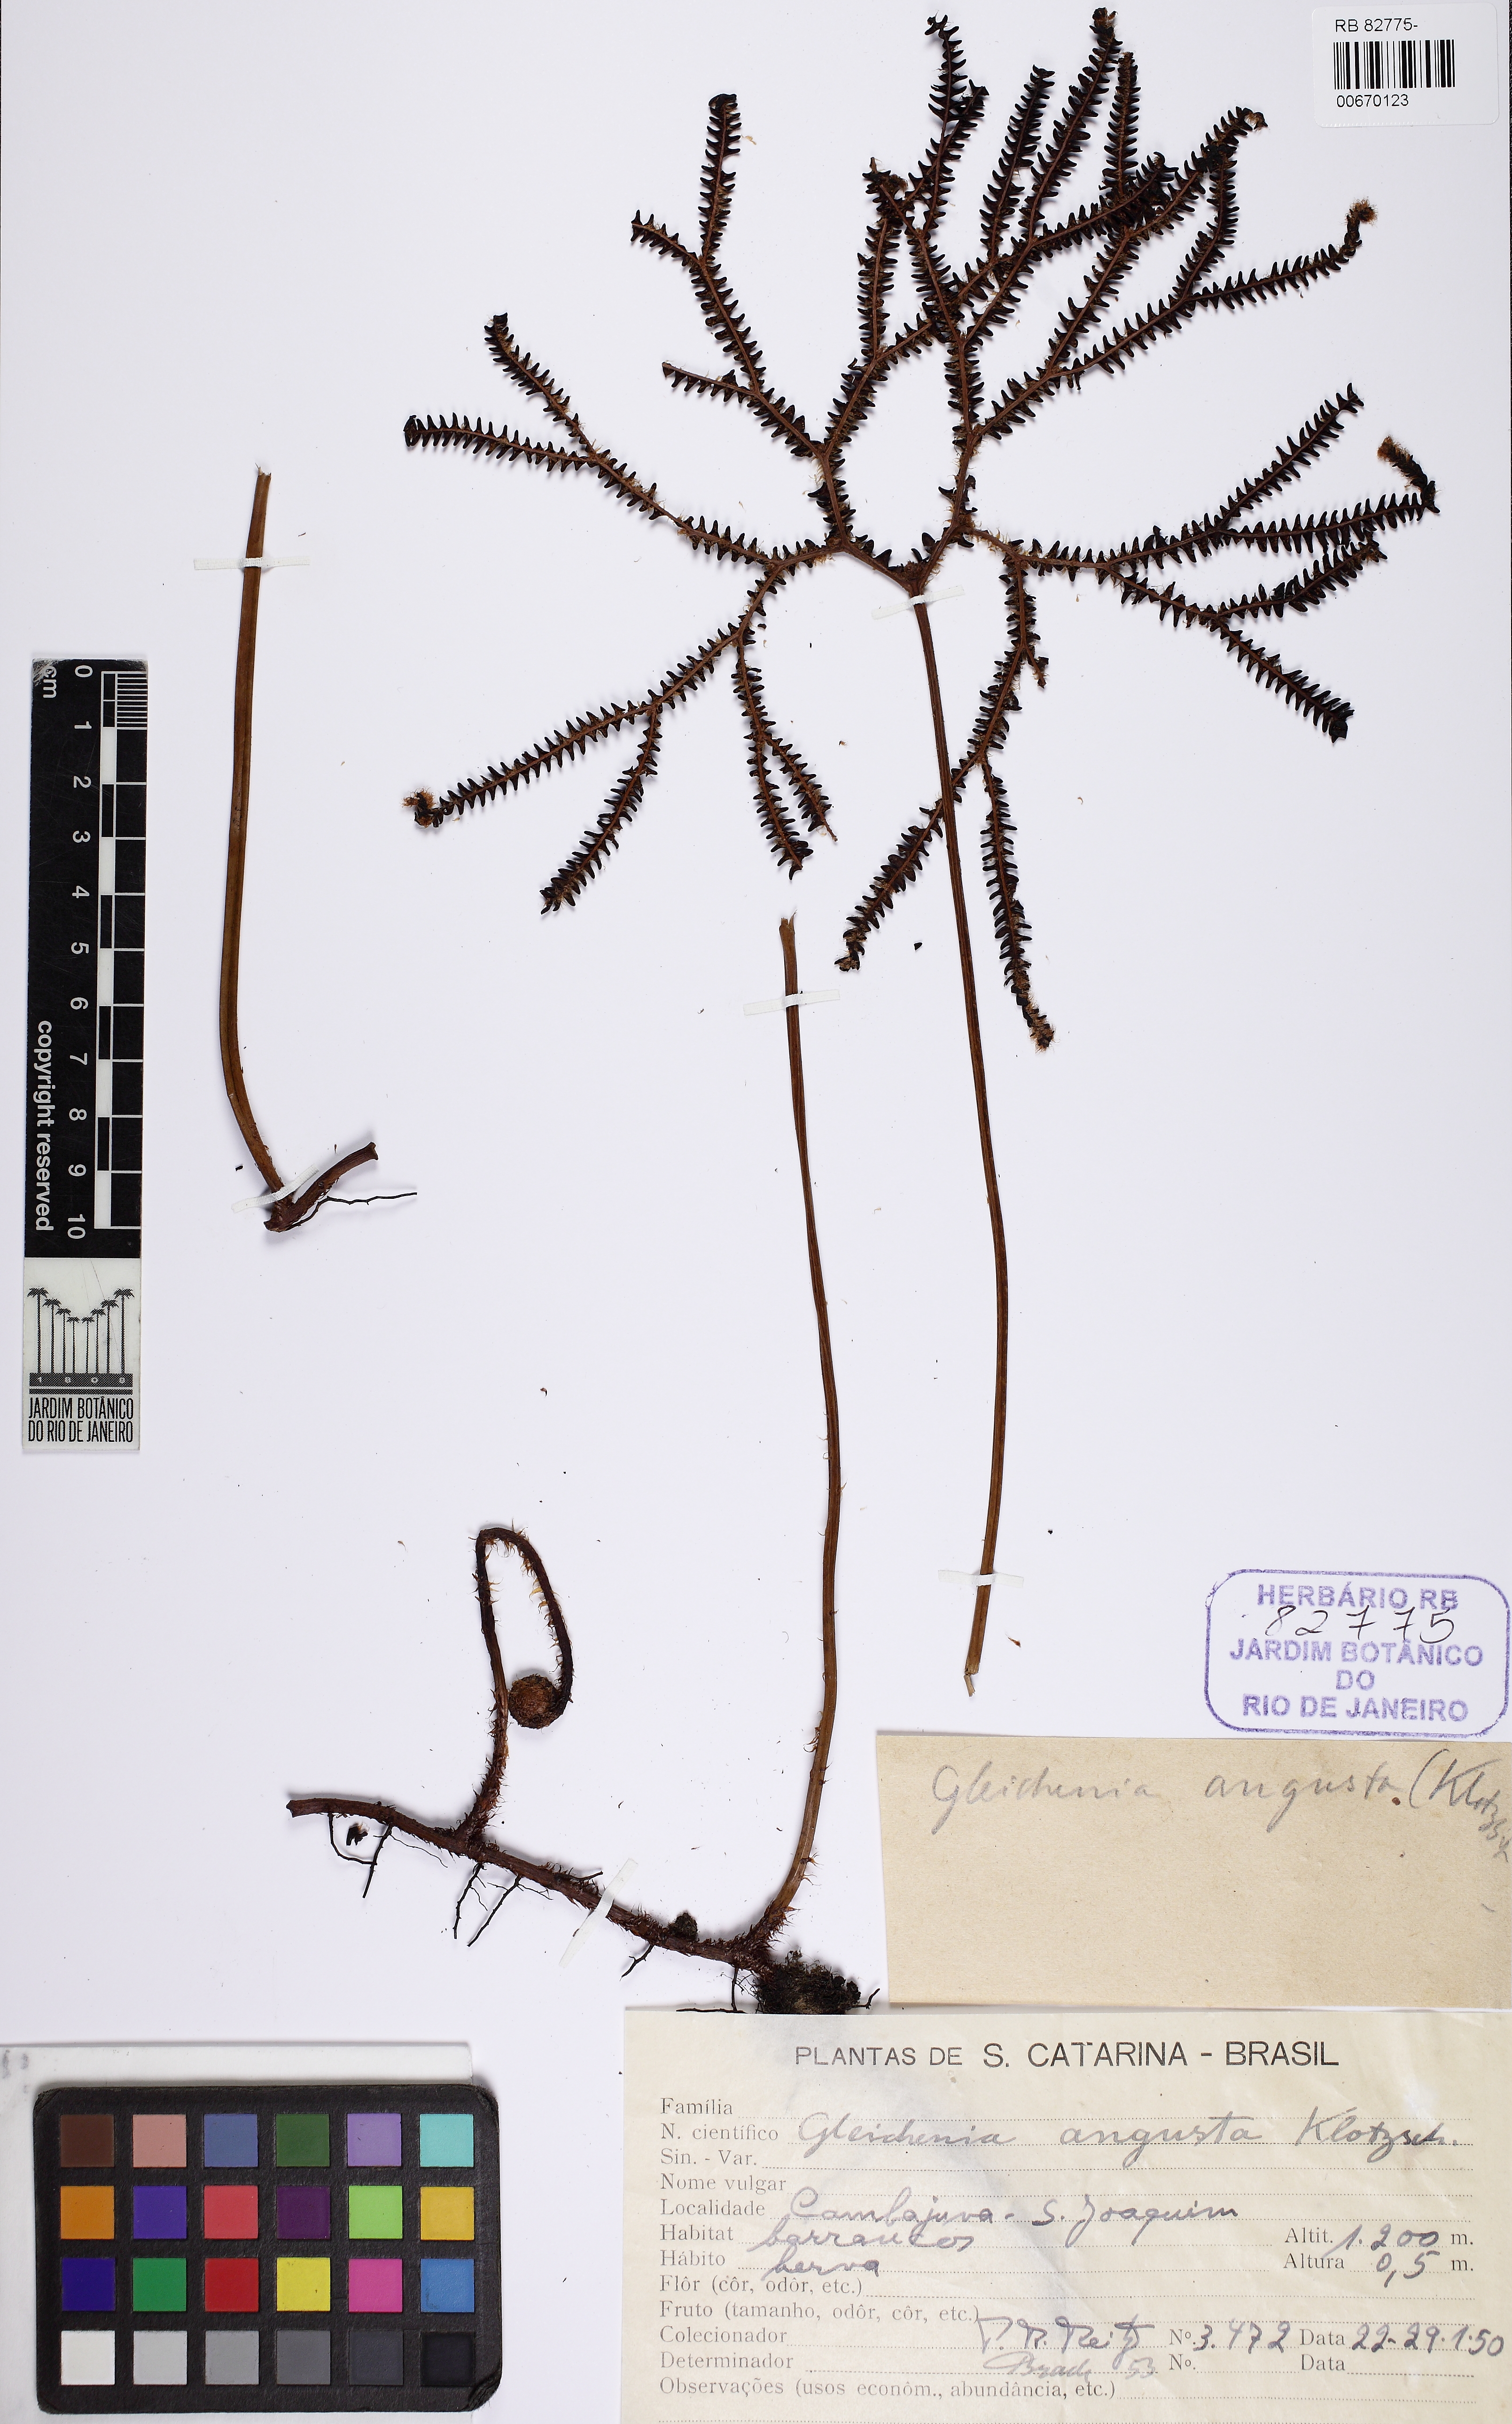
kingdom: Plantae
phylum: Tracheophyta
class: Polypodiopsida
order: Gleicheniales
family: Gleicheniaceae
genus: Sticherus
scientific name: Sticherus pruinosus
